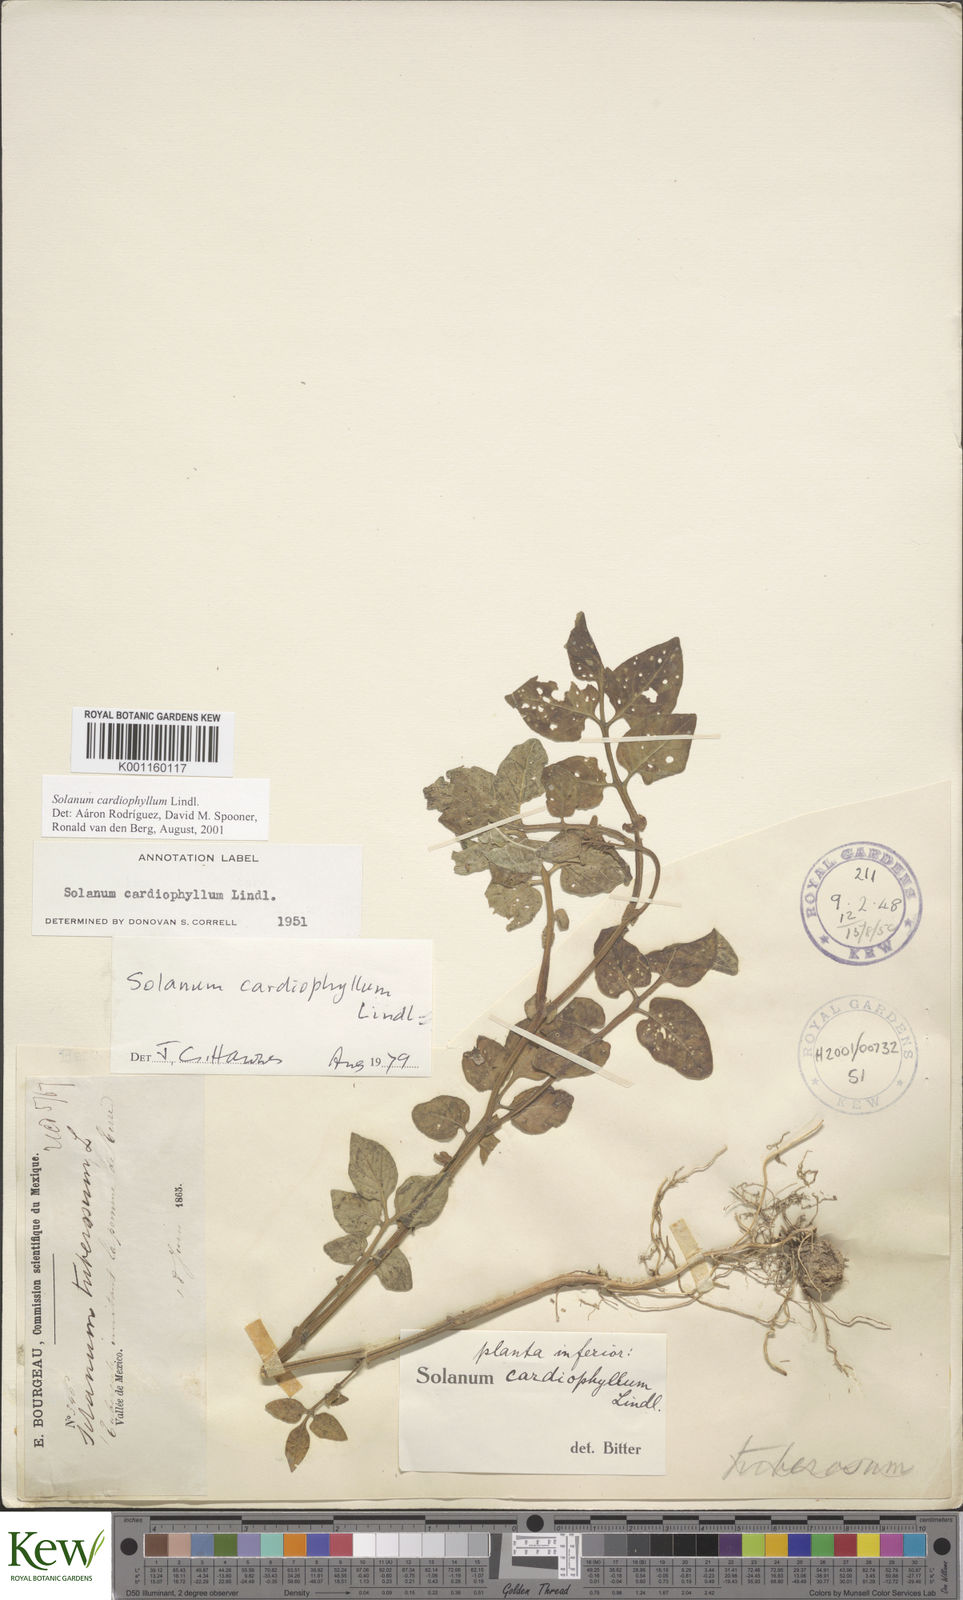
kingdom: Plantae
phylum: Tracheophyta
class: Magnoliopsida
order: Solanales
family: Solanaceae
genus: Solanum
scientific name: Solanum cardiophyllum
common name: Heartleaf horsenettle
